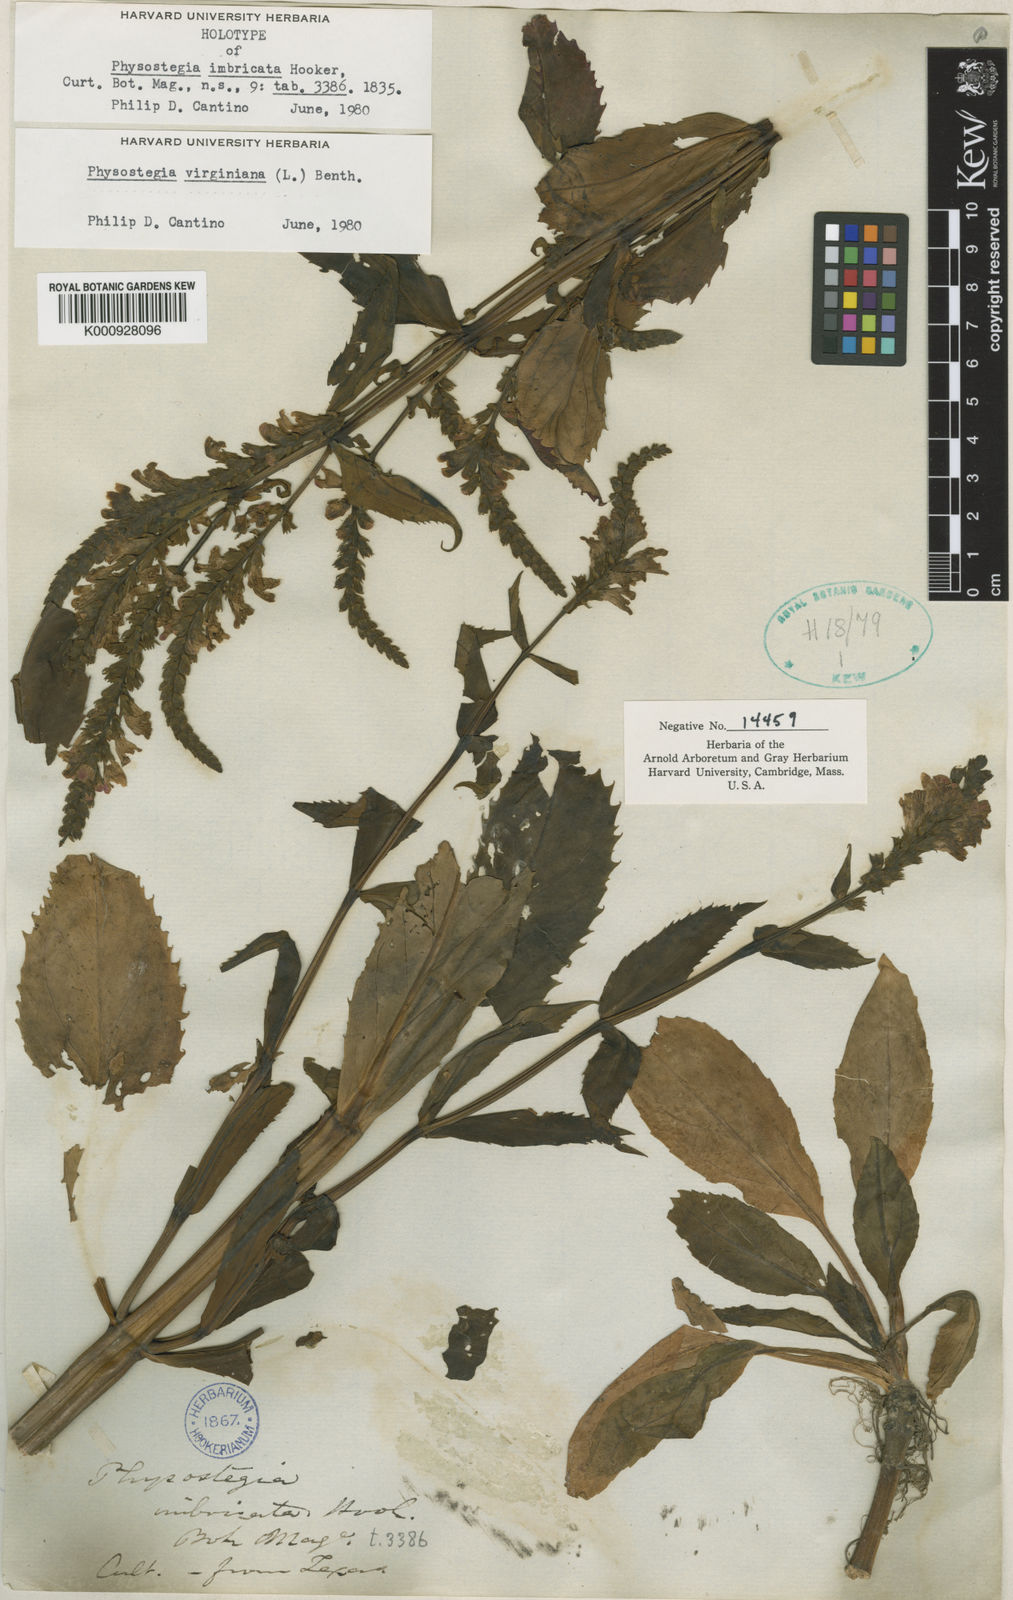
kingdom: Plantae
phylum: Tracheophyta
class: Magnoliopsida
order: Lamiales
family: Lamiaceae
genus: Physostegia
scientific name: Physostegia virginiana
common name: Obedient-plant
